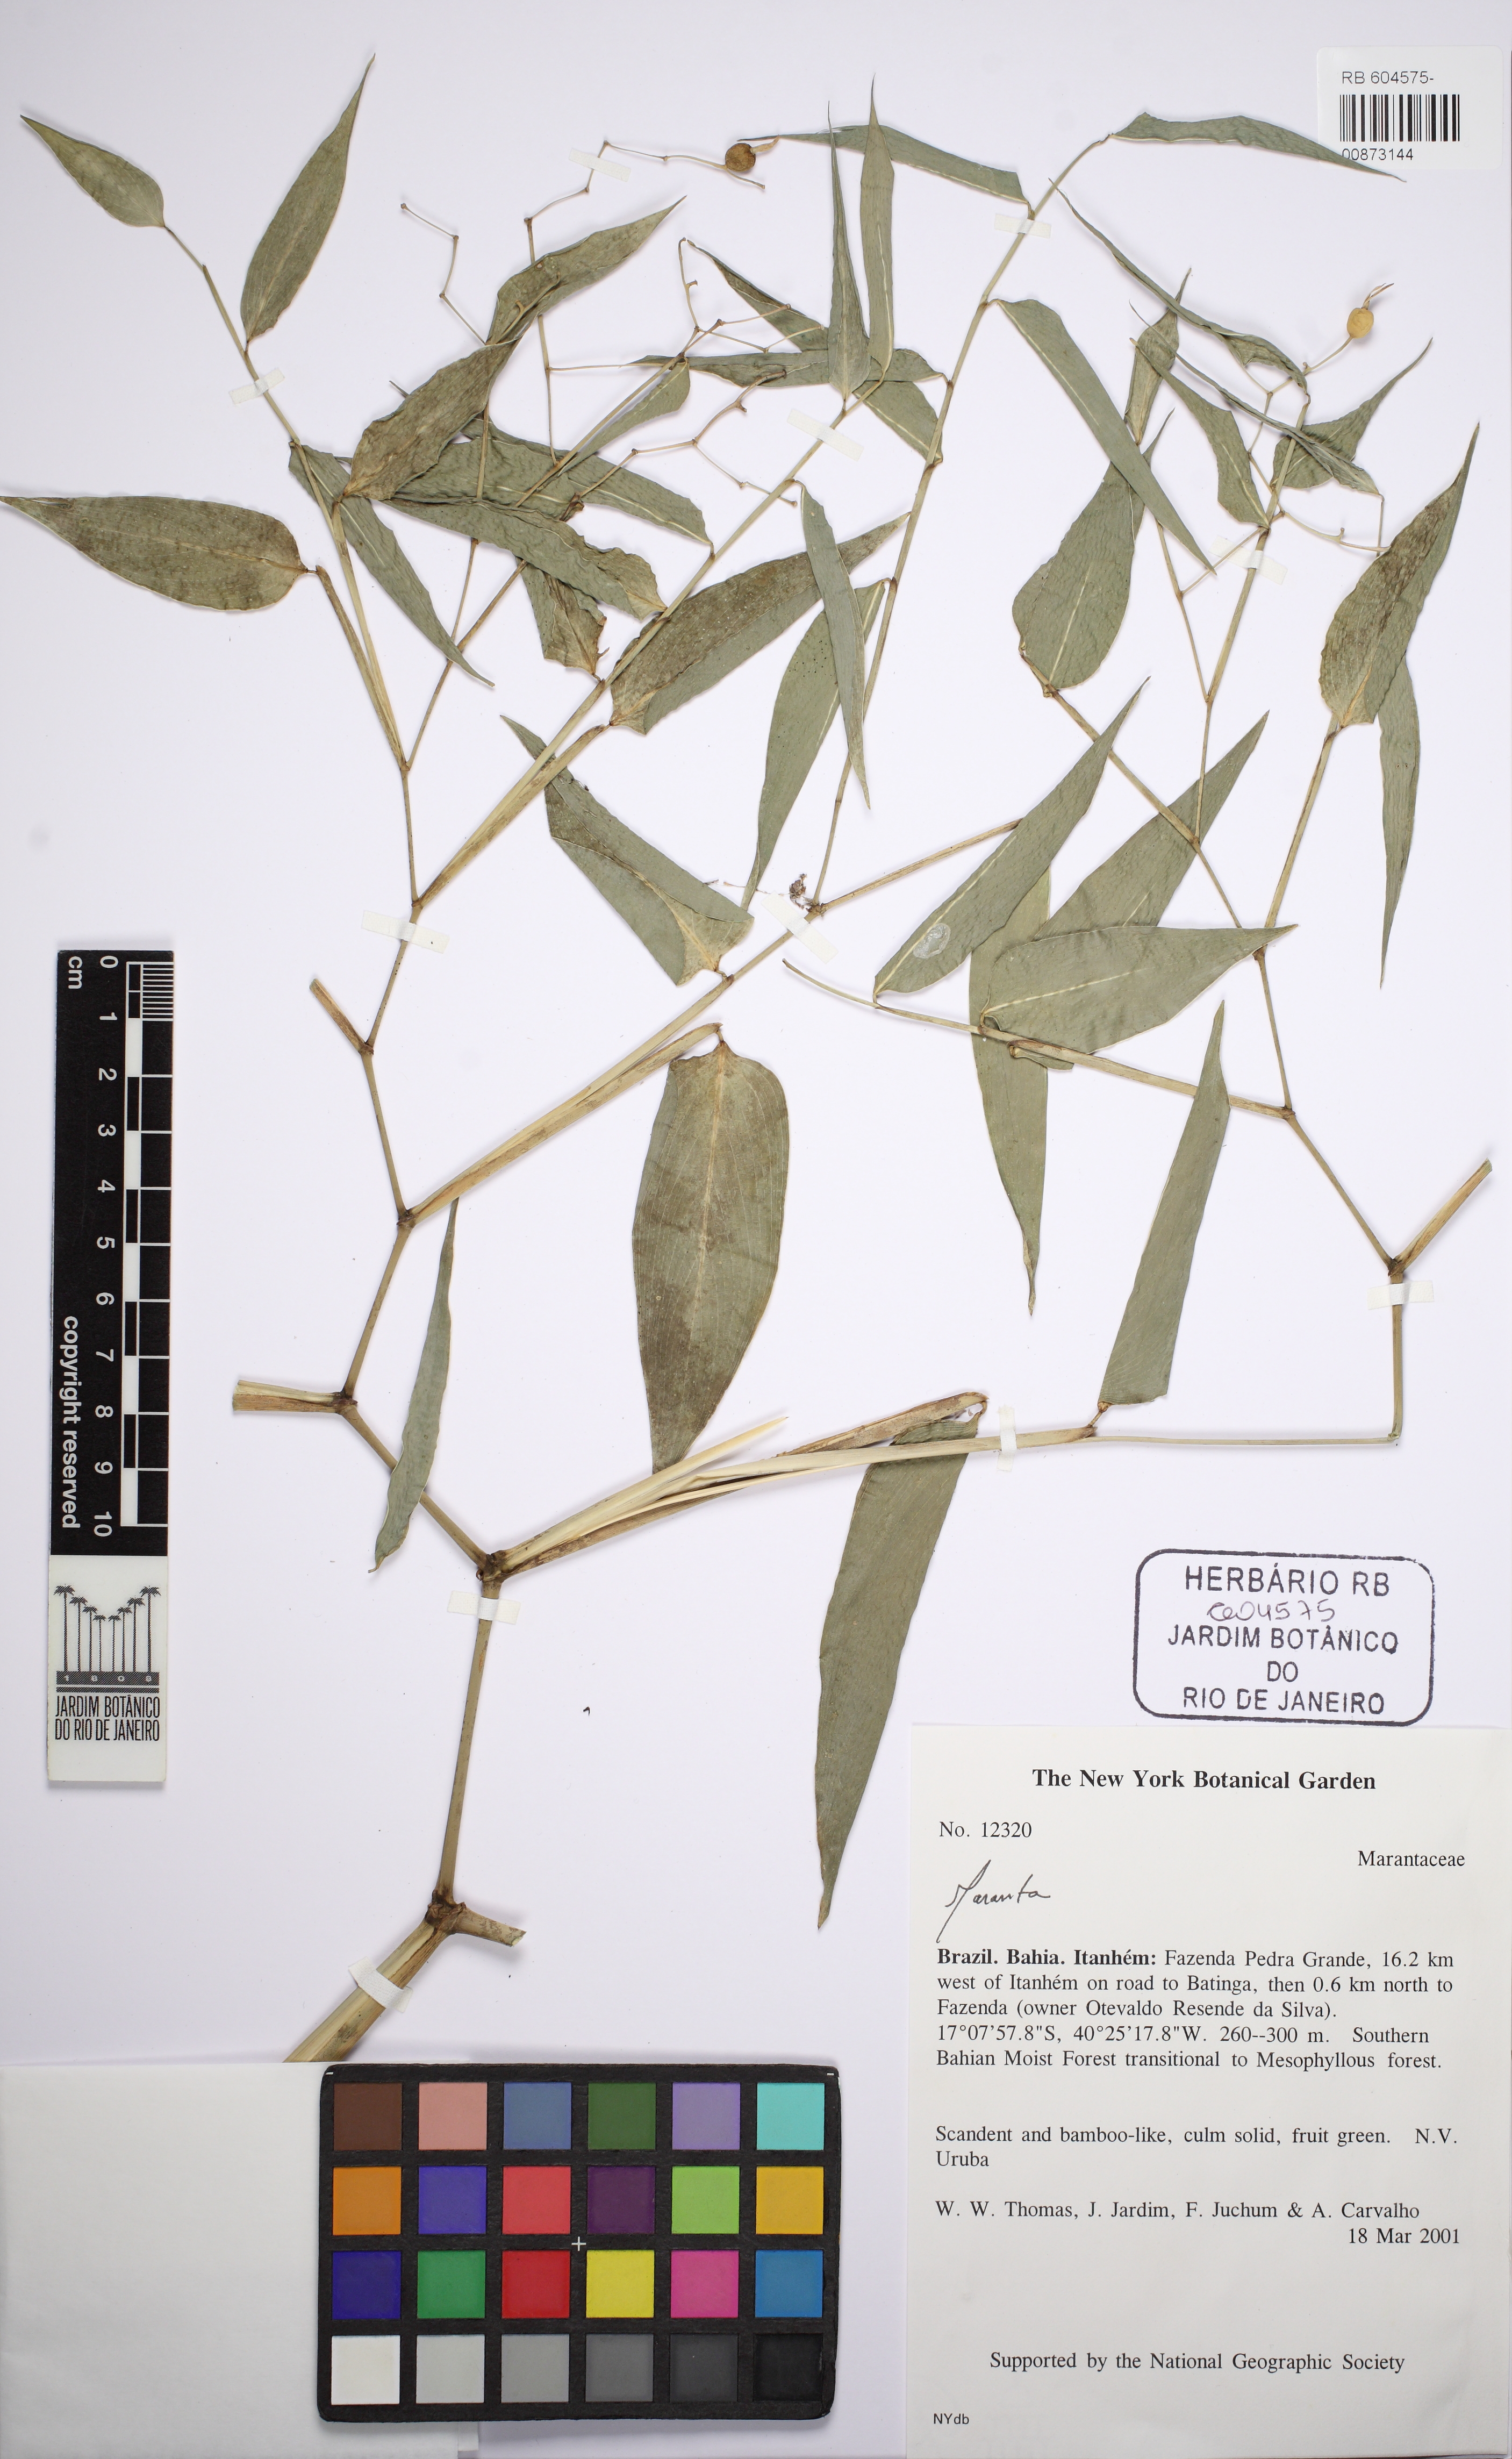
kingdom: Plantae
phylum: Tracheophyta
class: Liliopsida
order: Zingiberales
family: Marantaceae
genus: Stromanthe
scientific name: Stromanthe tonckat
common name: Stromanthe
